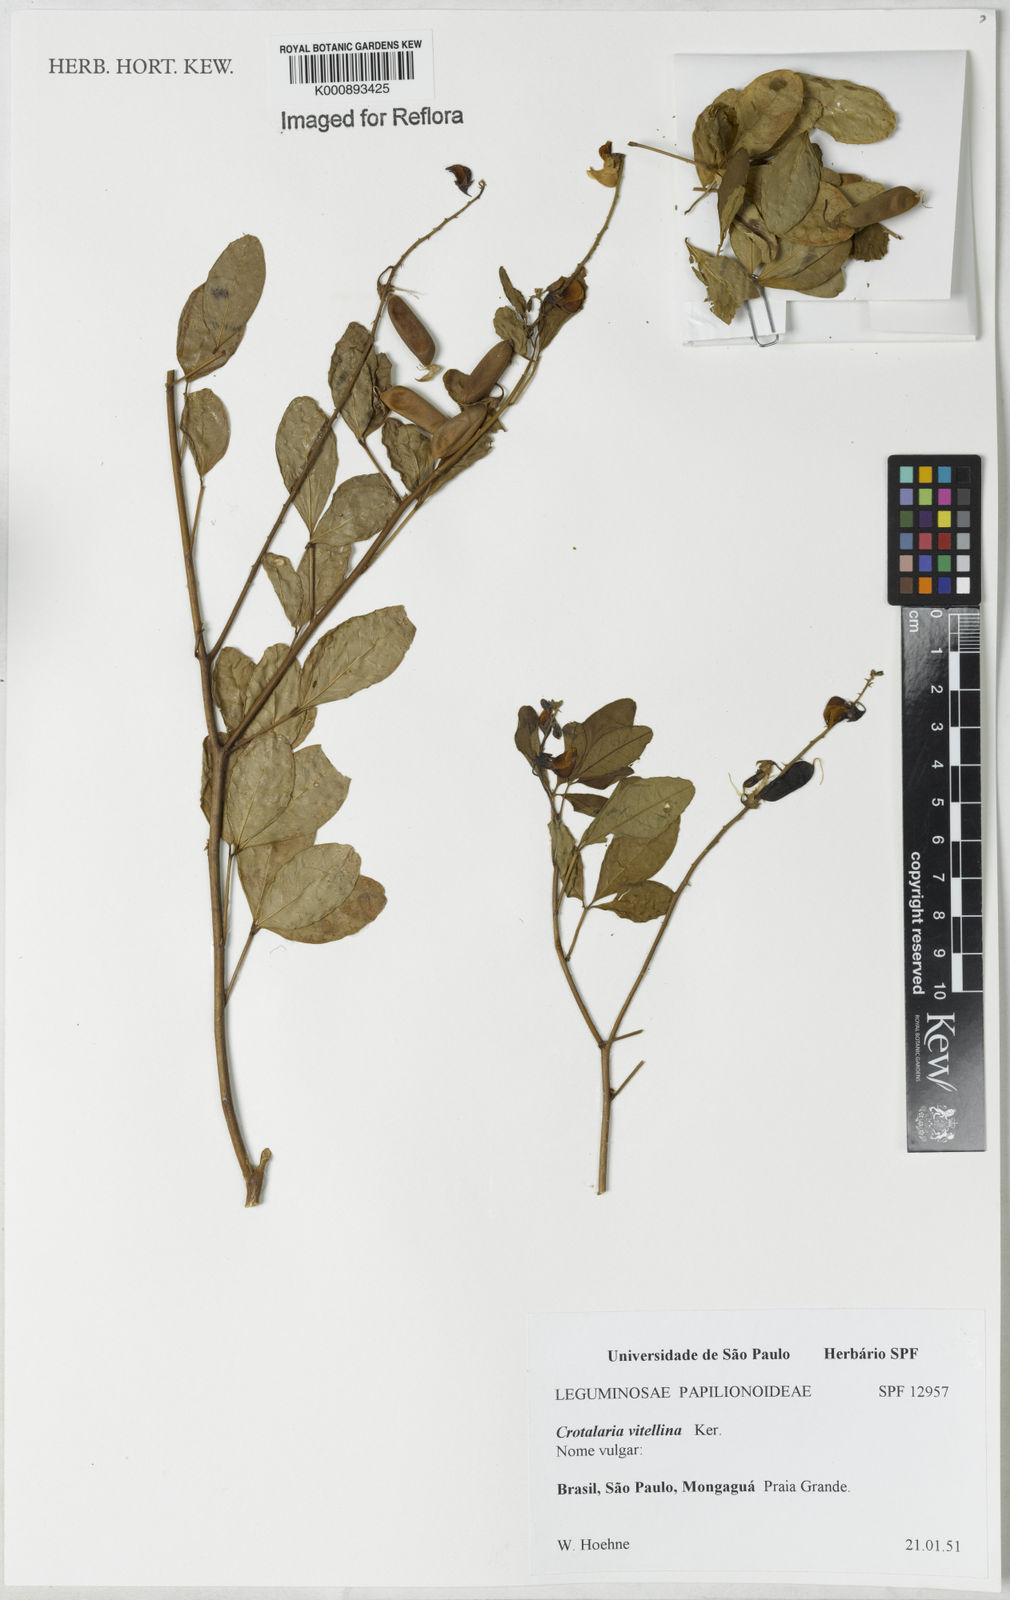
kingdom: Plantae
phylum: Tracheophyta
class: Magnoliopsida
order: Fabales
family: Fabaceae
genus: Crotalaria
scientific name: Crotalaria vitellina
